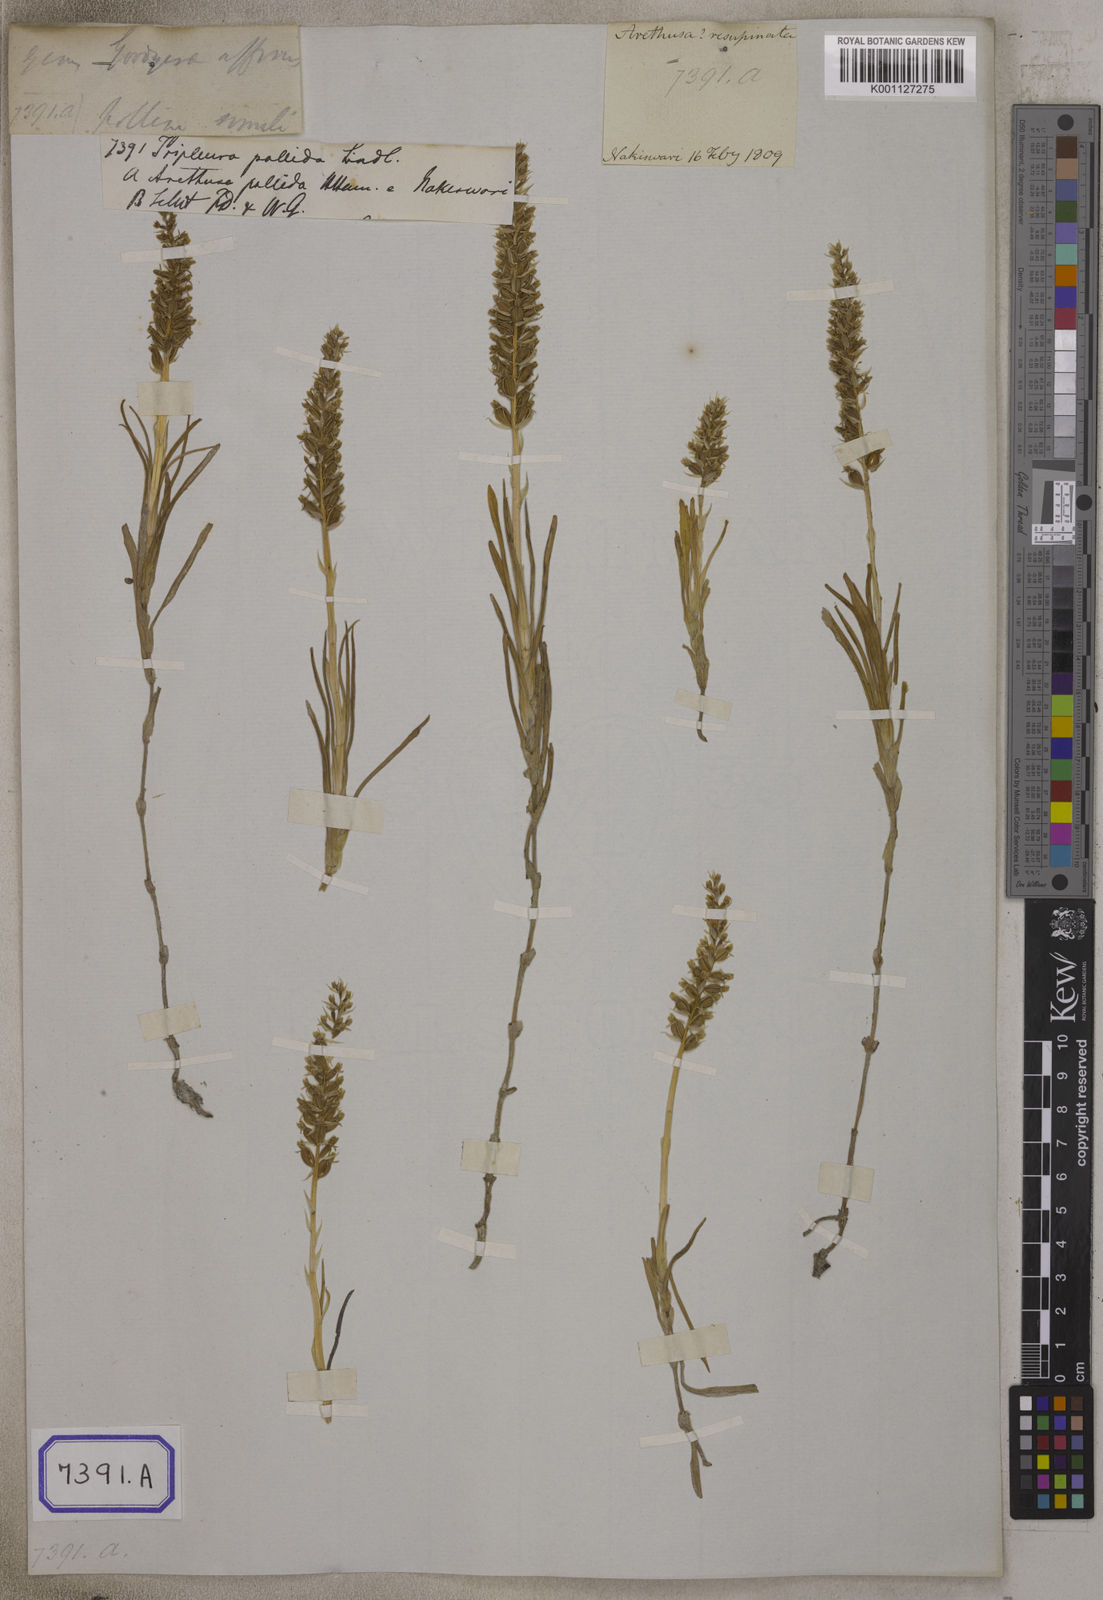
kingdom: Plantae
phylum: Tracheophyta
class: Liliopsida
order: Asparagales
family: Orchidaceae
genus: Zeuxine
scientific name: Zeuxine membranacea
